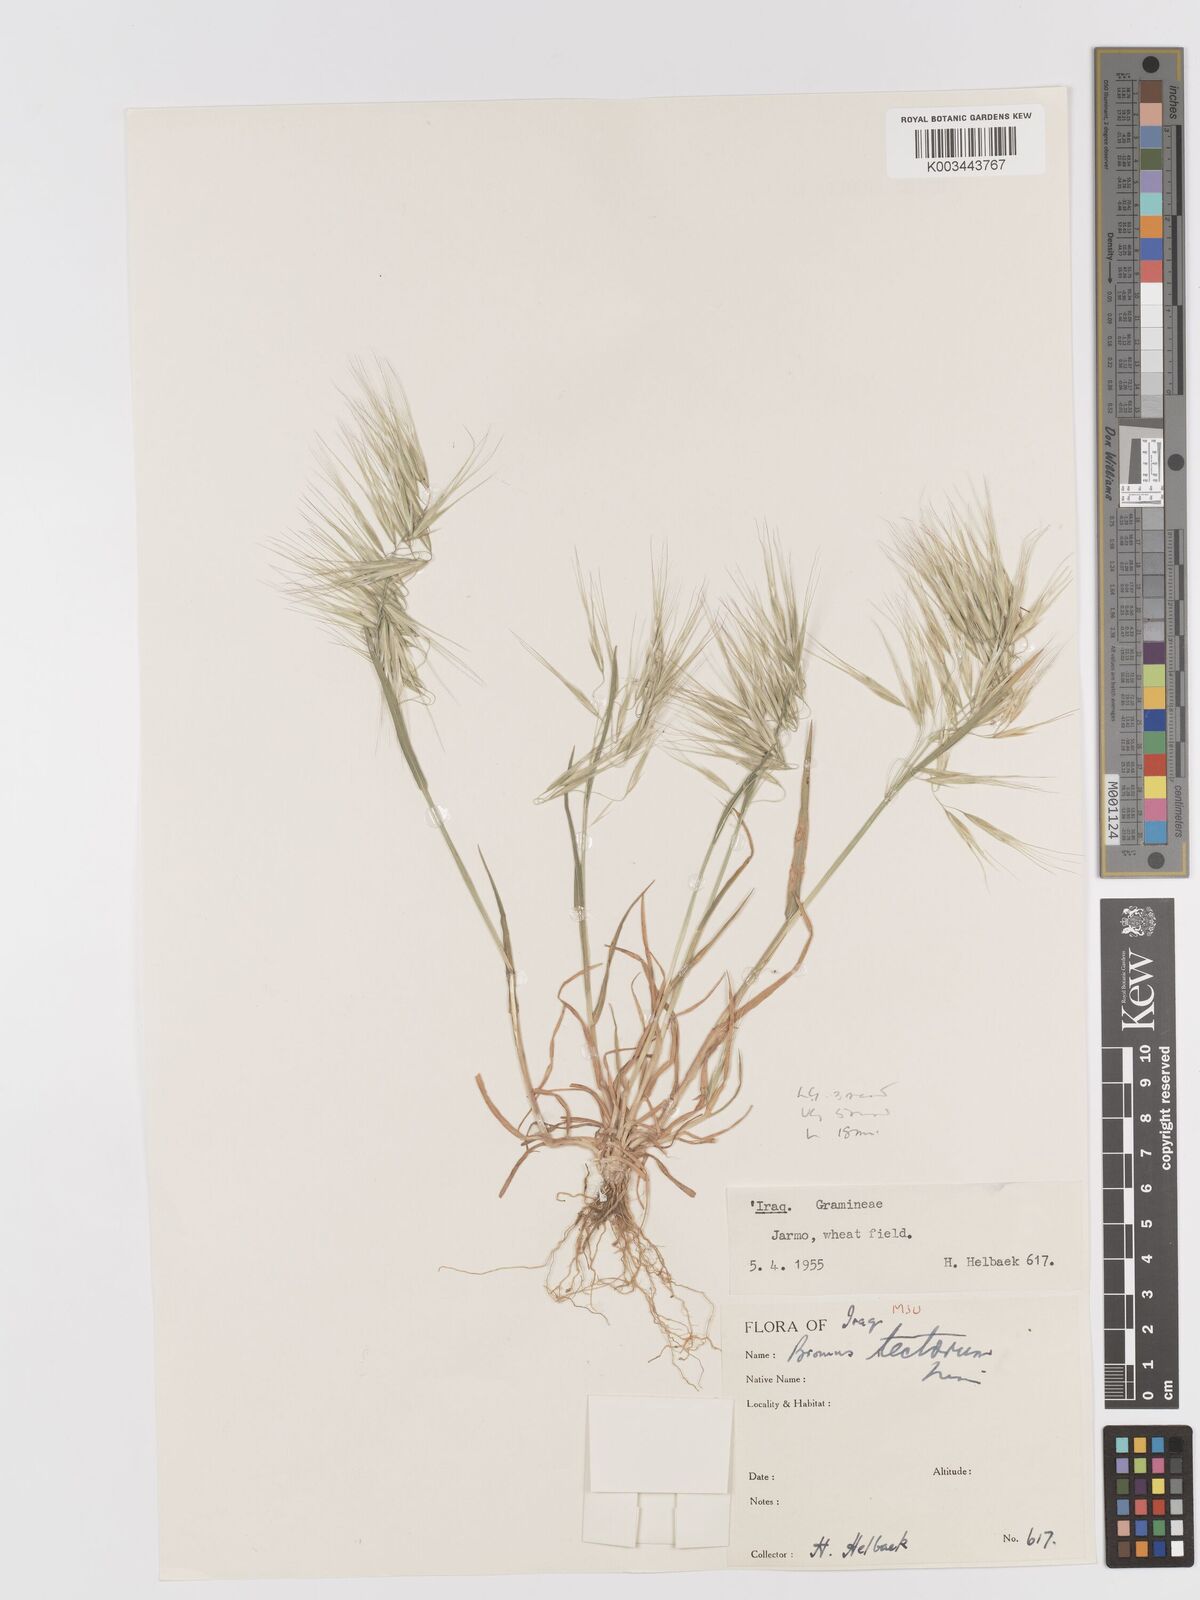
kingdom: Plantae
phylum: Tracheophyta
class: Liliopsida
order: Poales
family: Poaceae
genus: Bromus
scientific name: Bromus tectorum
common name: Cheatgrass
